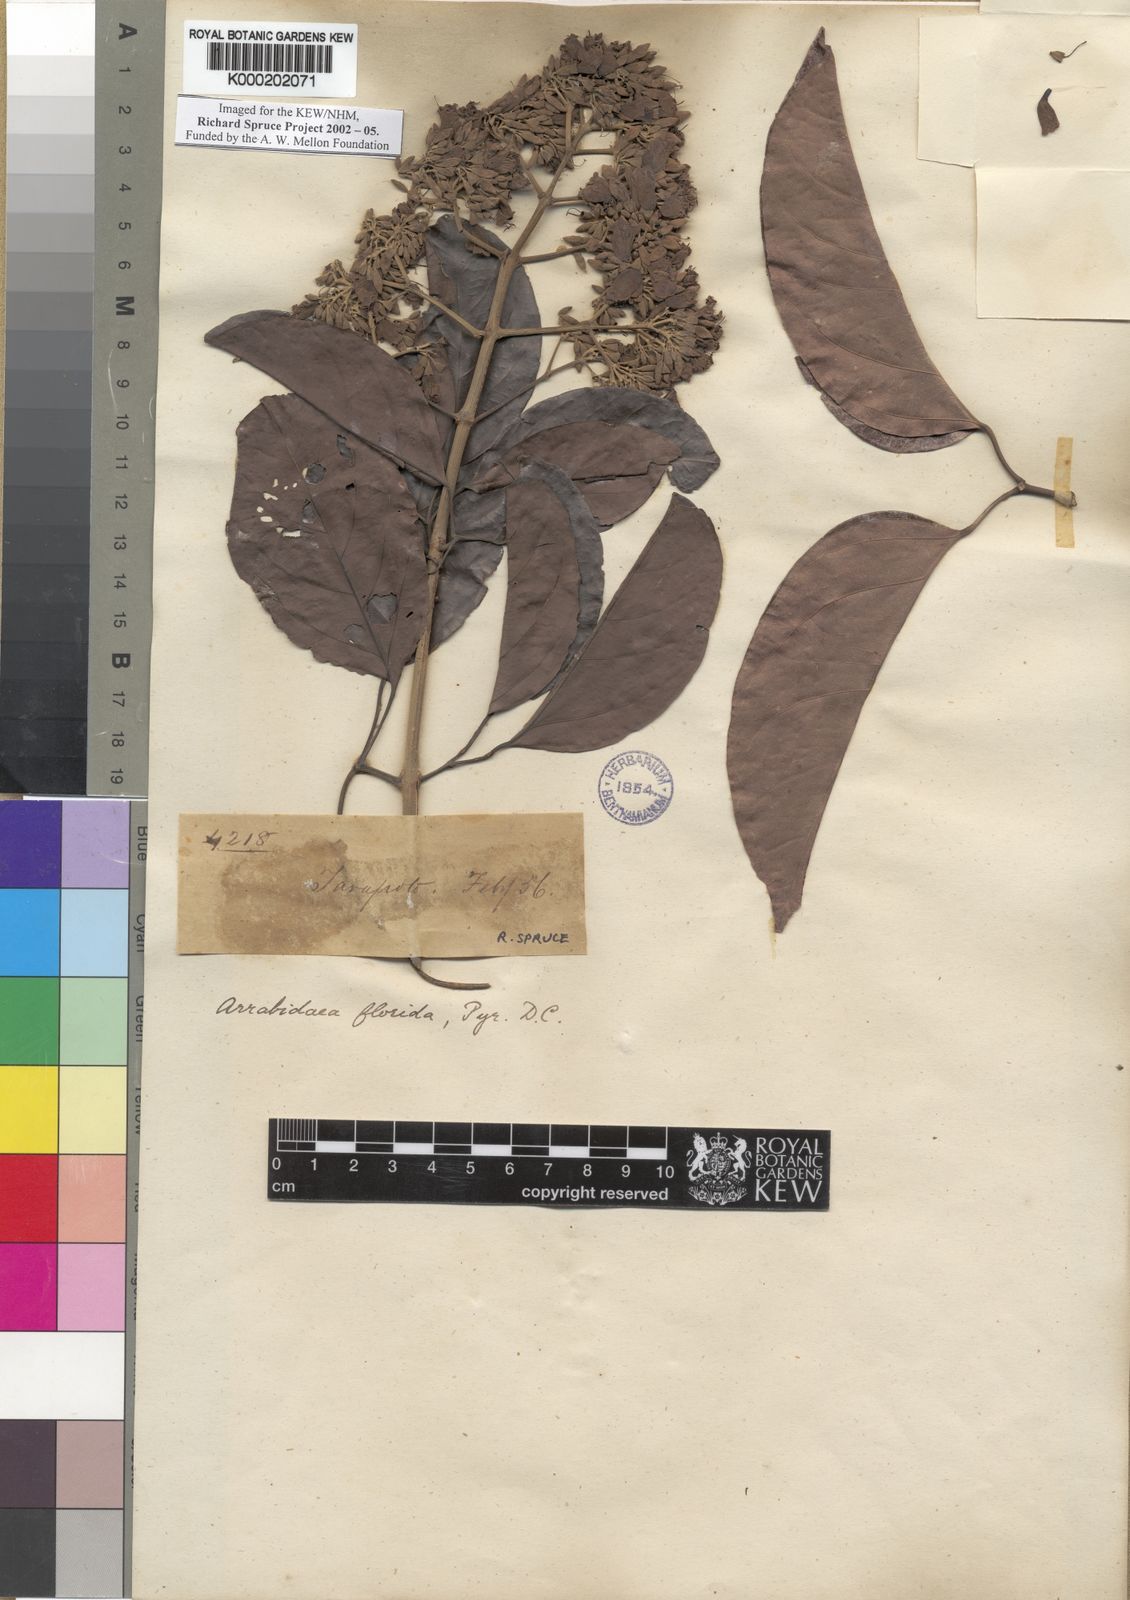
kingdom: Plantae
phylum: Tracheophyta
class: Magnoliopsida
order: Lamiales
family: Bignoniaceae
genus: Fridericia
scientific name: Fridericia florida
